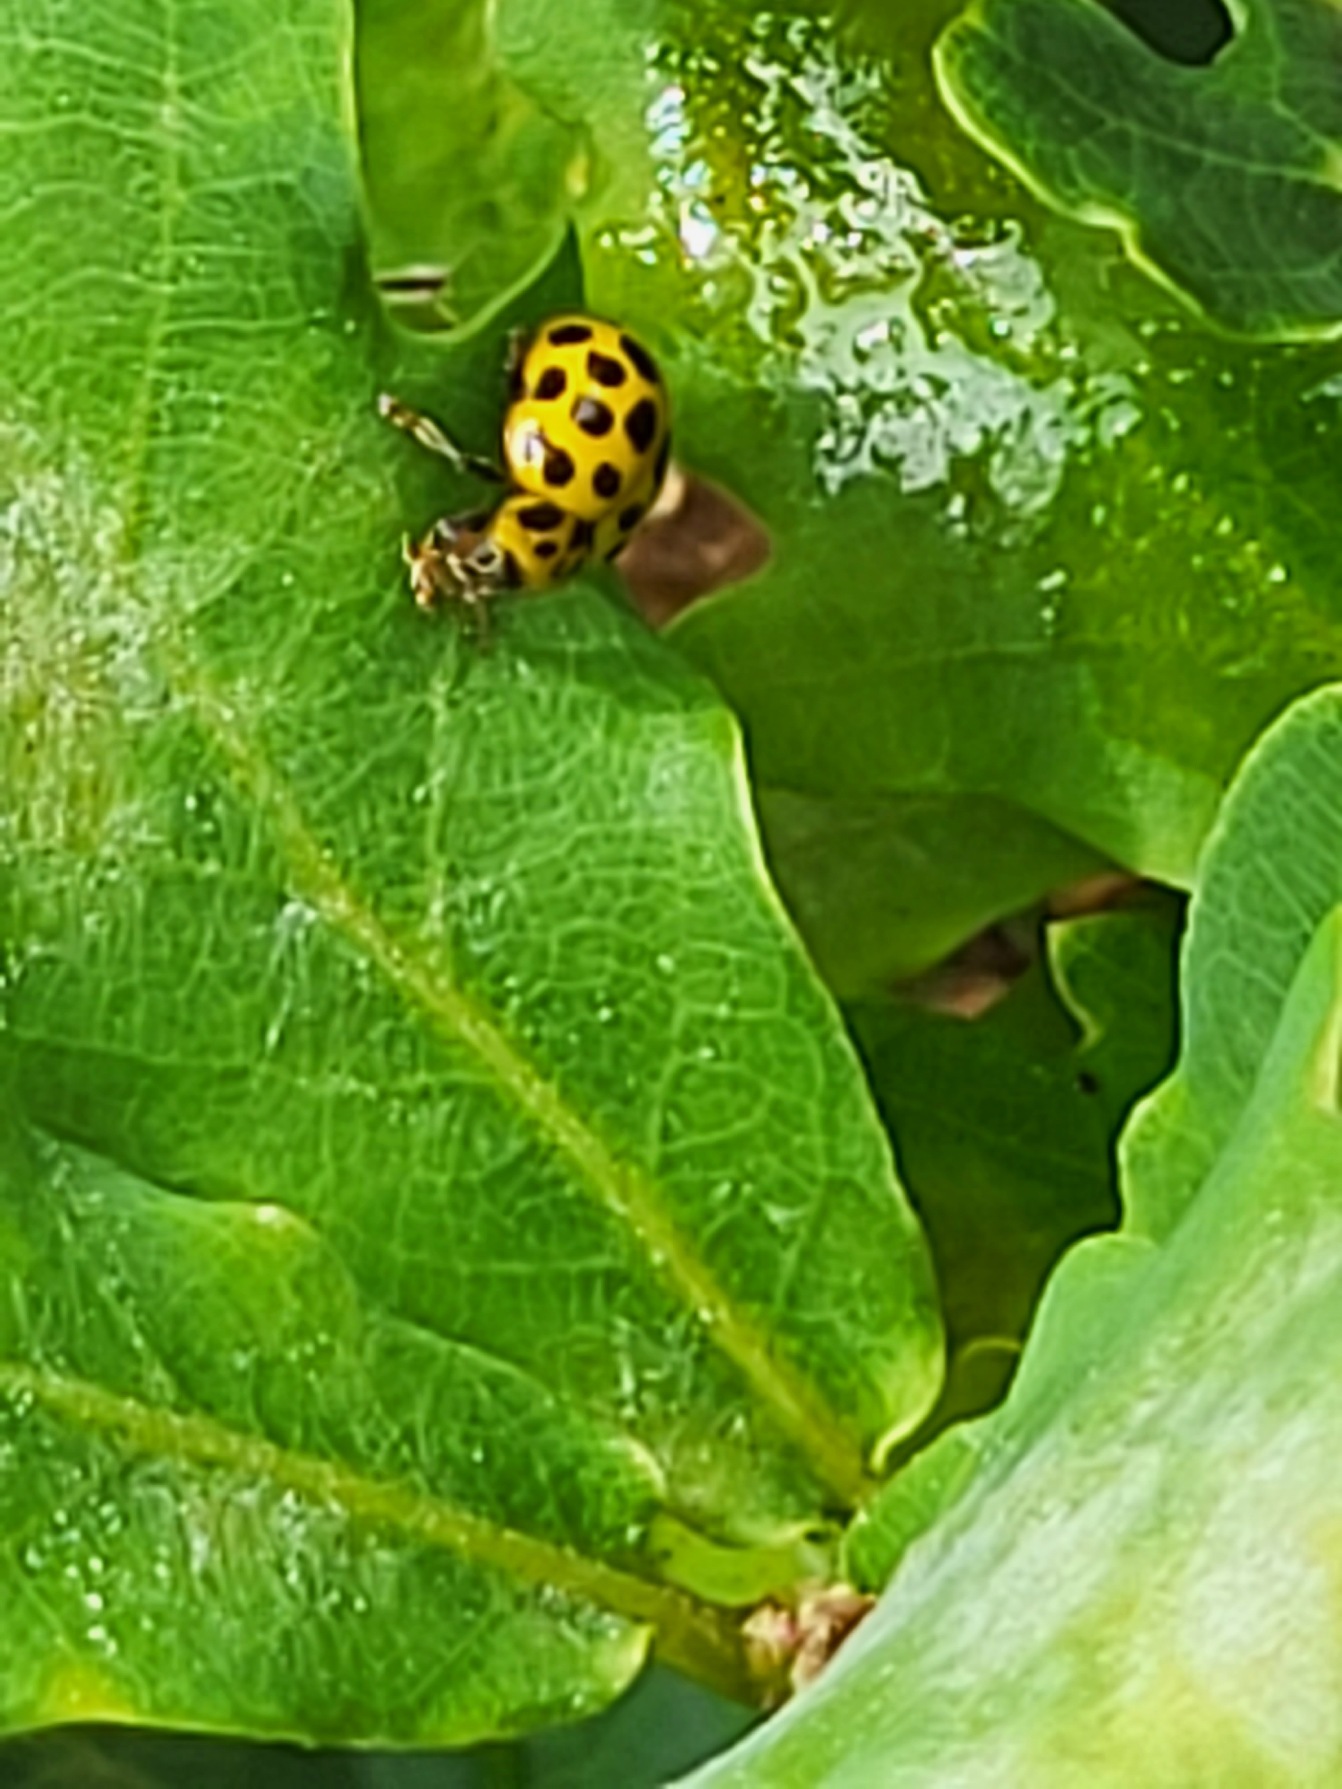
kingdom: Animalia
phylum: Arthropoda
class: Insecta
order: Coleoptera
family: Coccinellidae
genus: Psyllobora
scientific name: Psyllobora vigintiduopunctata
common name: Toogtyveplettet mariehøne
